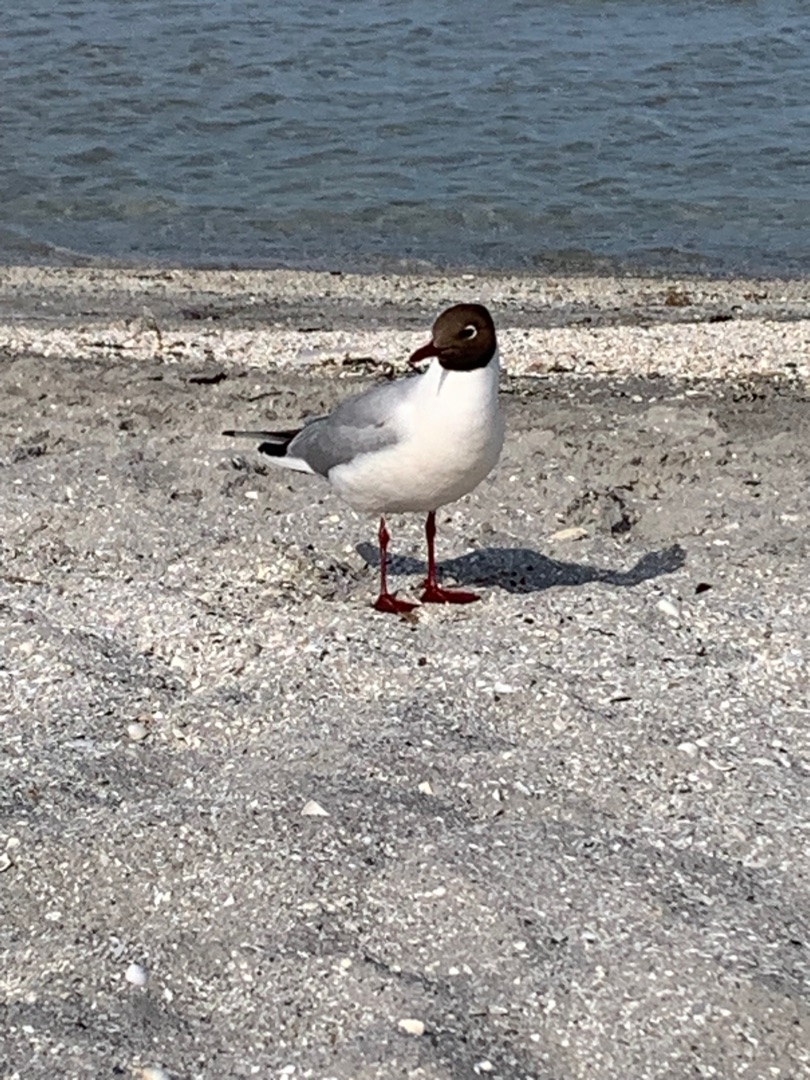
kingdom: Animalia
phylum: Chordata
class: Aves
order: Charadriiformes
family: Laridae
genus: Chroicocephalus
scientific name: Chroicocephalus ridibundus
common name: Hættemåge
